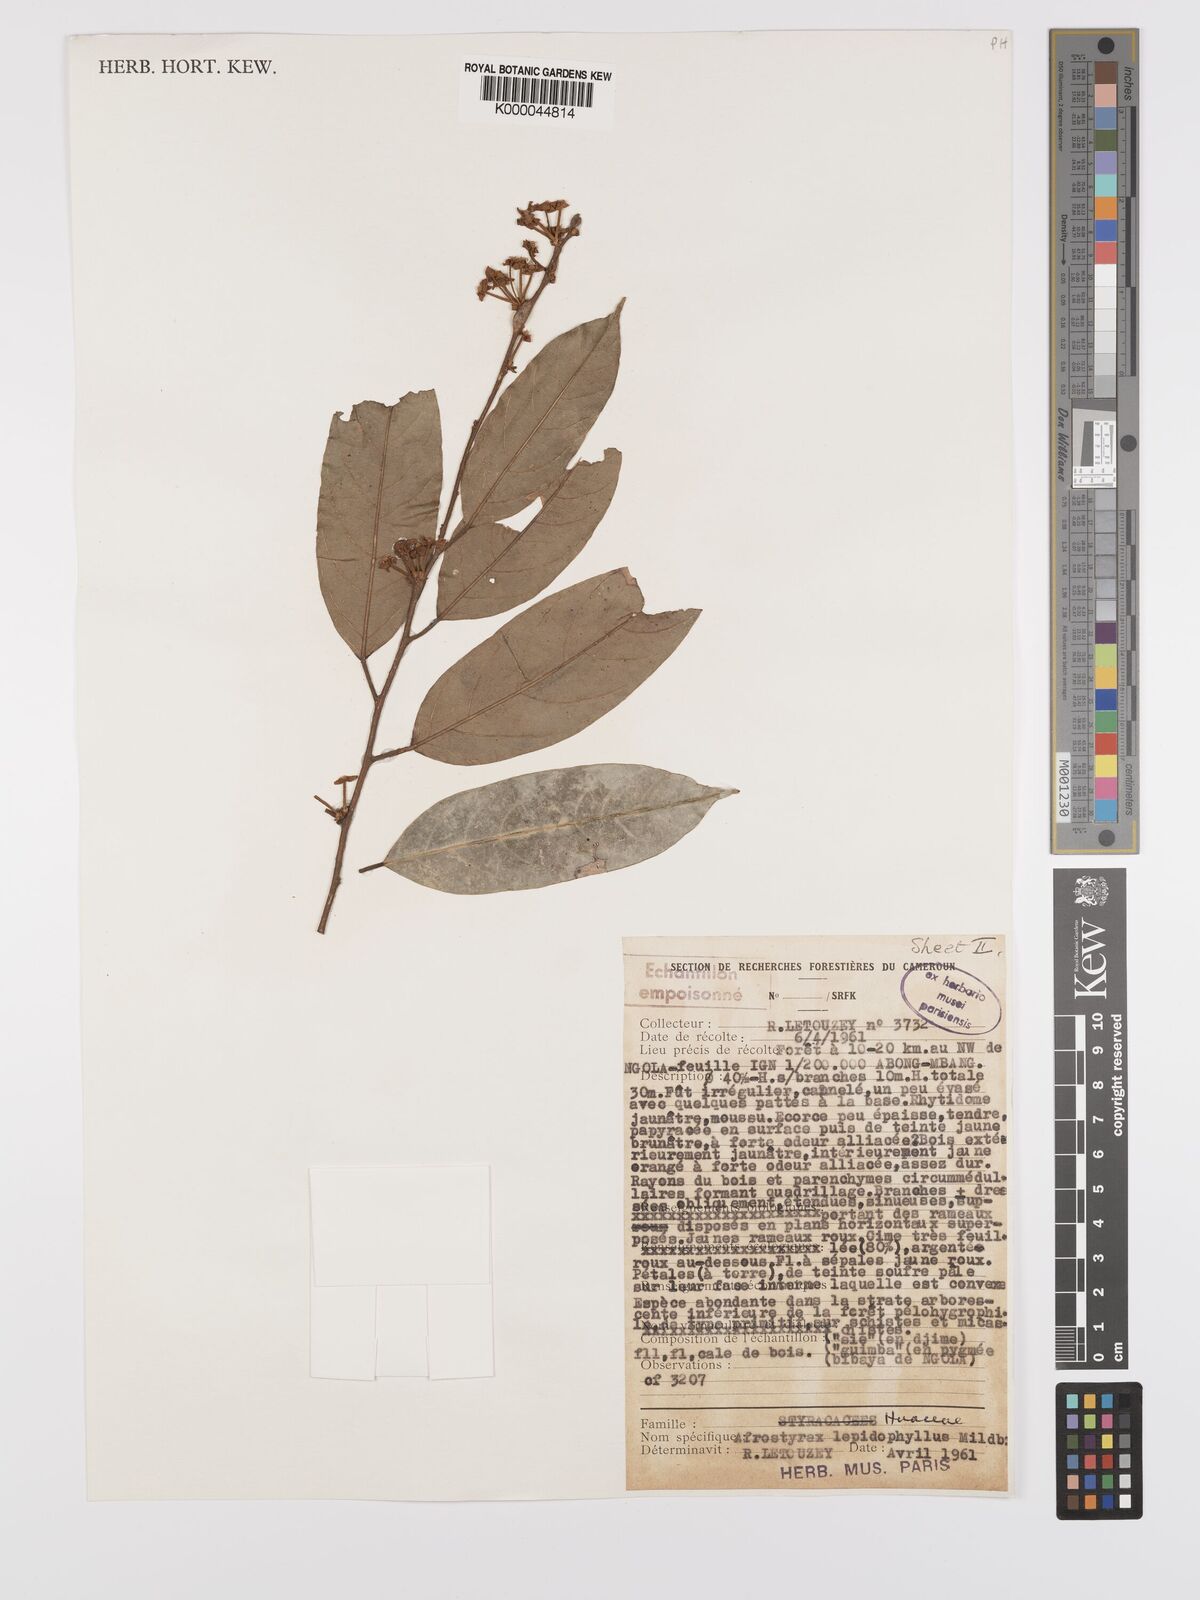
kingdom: Plantae
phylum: Tracheophyta
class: Magnoliopsida
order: Oxalidales
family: Huaceae
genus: Afrostyrax
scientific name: Afrostyrax lepidophyllus
